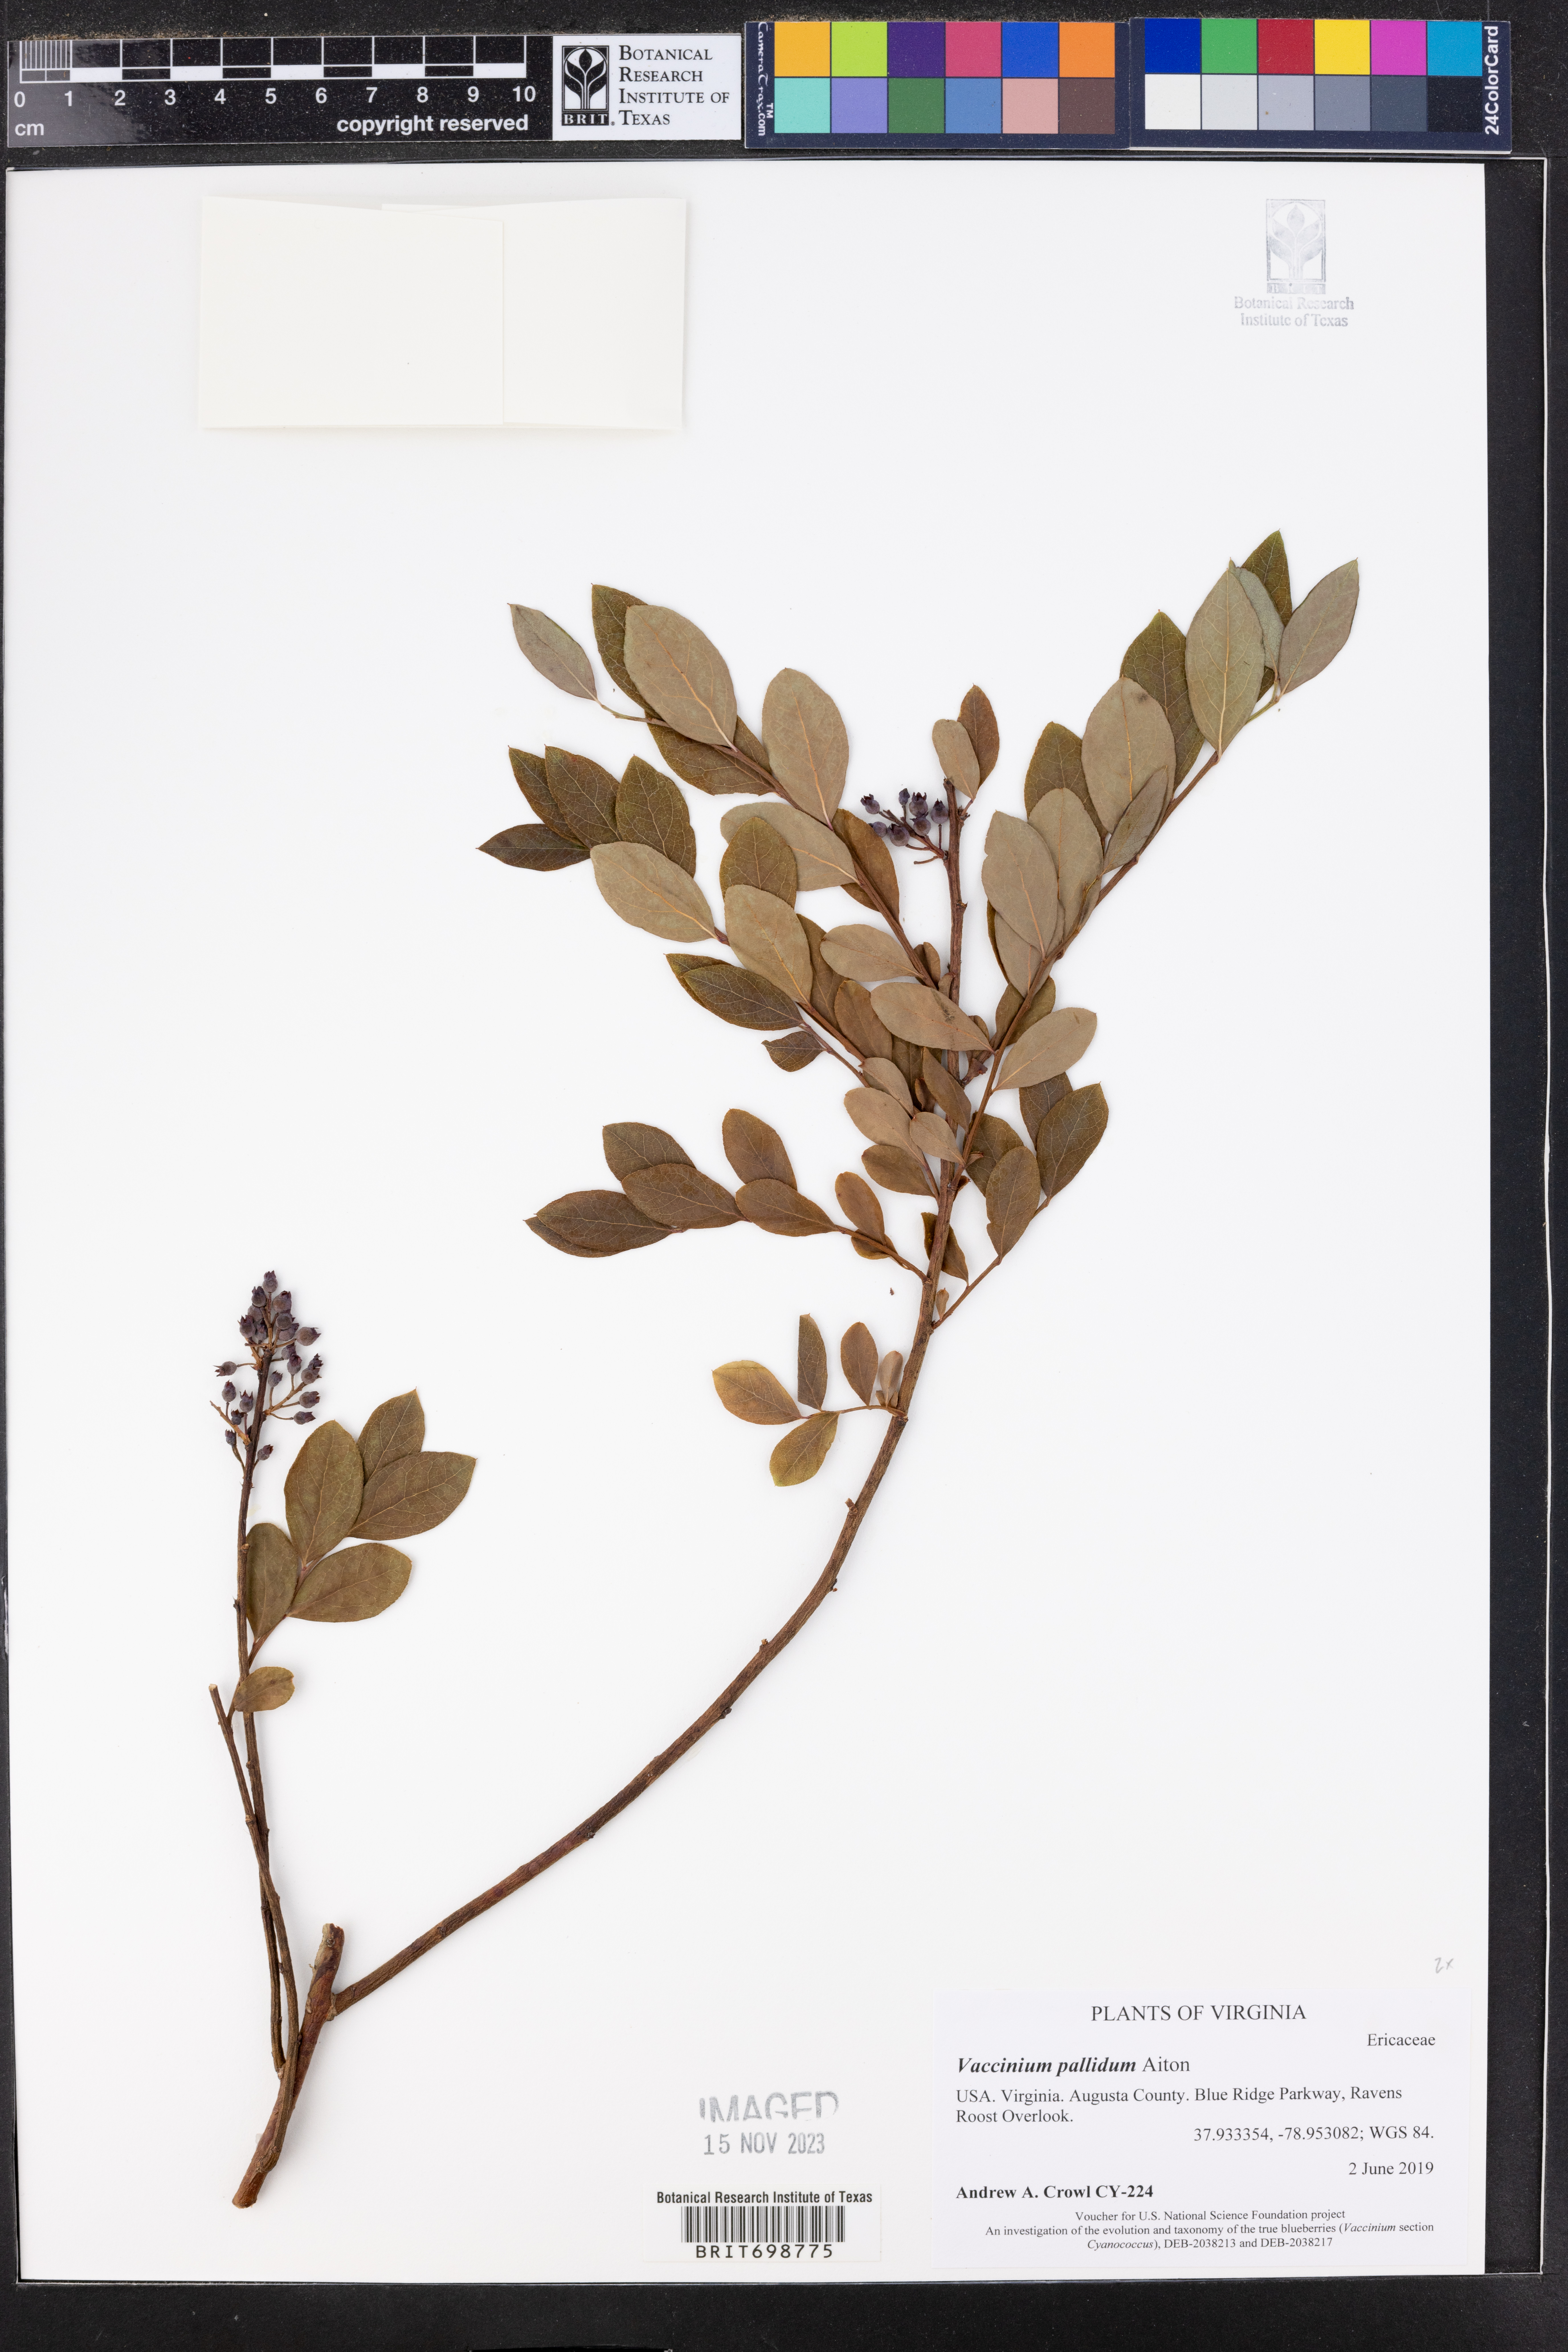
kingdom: Plantae
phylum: Tracheophyta
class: Magnoliopsida
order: Ericales
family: Ericaceae
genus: Vaccinium
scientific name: Vaccinium pallidum
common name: Blue ridge blueberry
